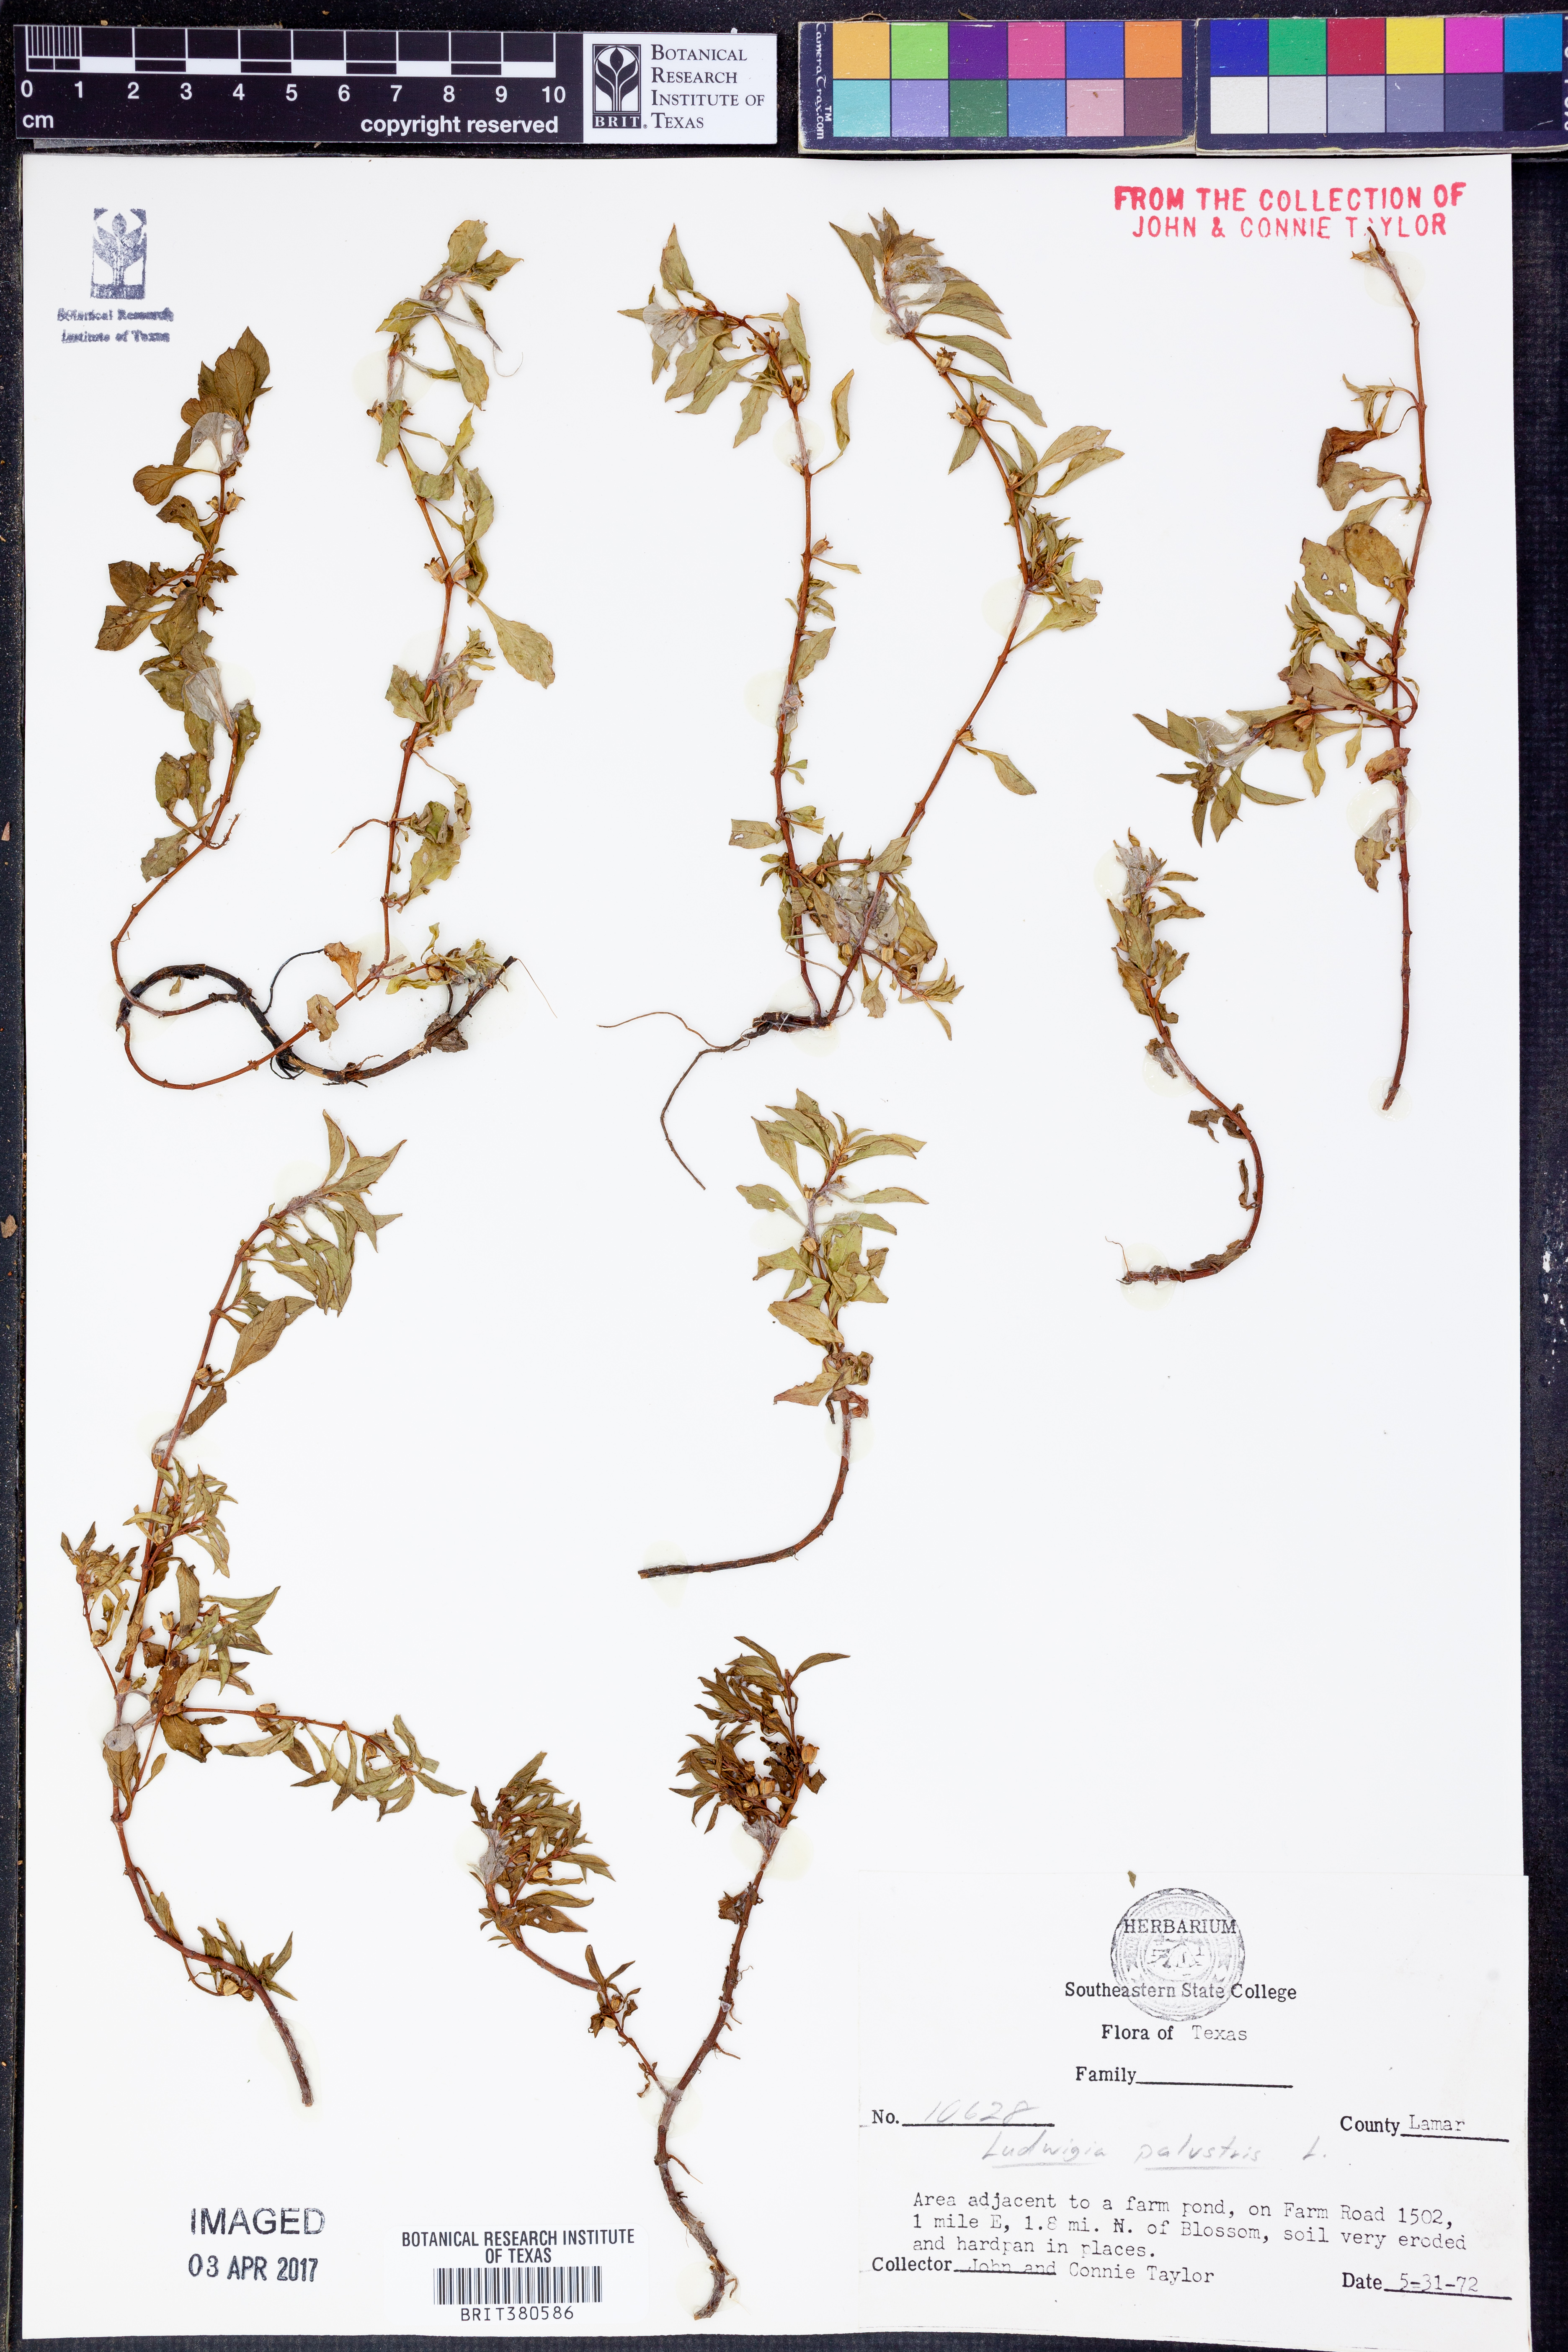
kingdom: Plantae
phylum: Tracheophyta
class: Magnoliopsida
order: Myrtales
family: Onagraceae
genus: Ludwigia
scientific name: Ludwigia palustris
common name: Hampshire-purslane
